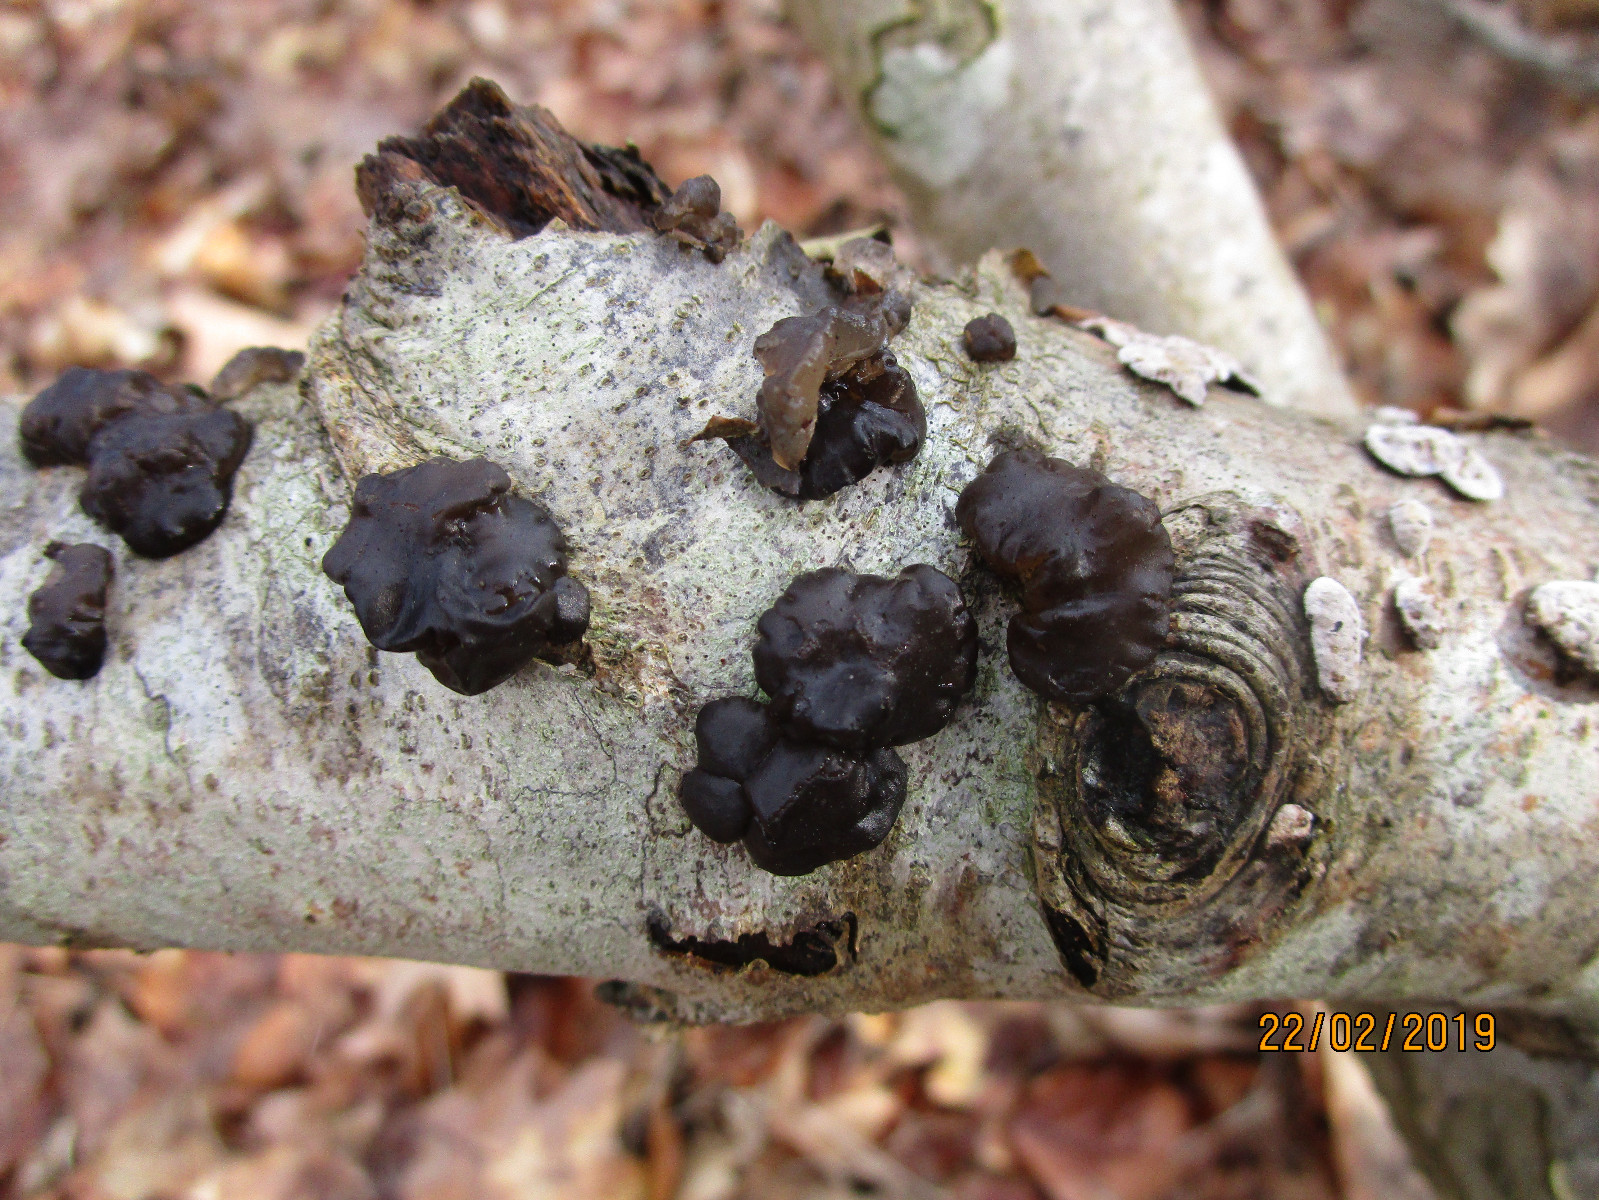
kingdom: Fungi
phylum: Basidiomycota
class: Agaricomycetes
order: Auriculariales
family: Auriculariaceae
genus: Exidia
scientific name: Exidia nigricans
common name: almindelig bævretop
